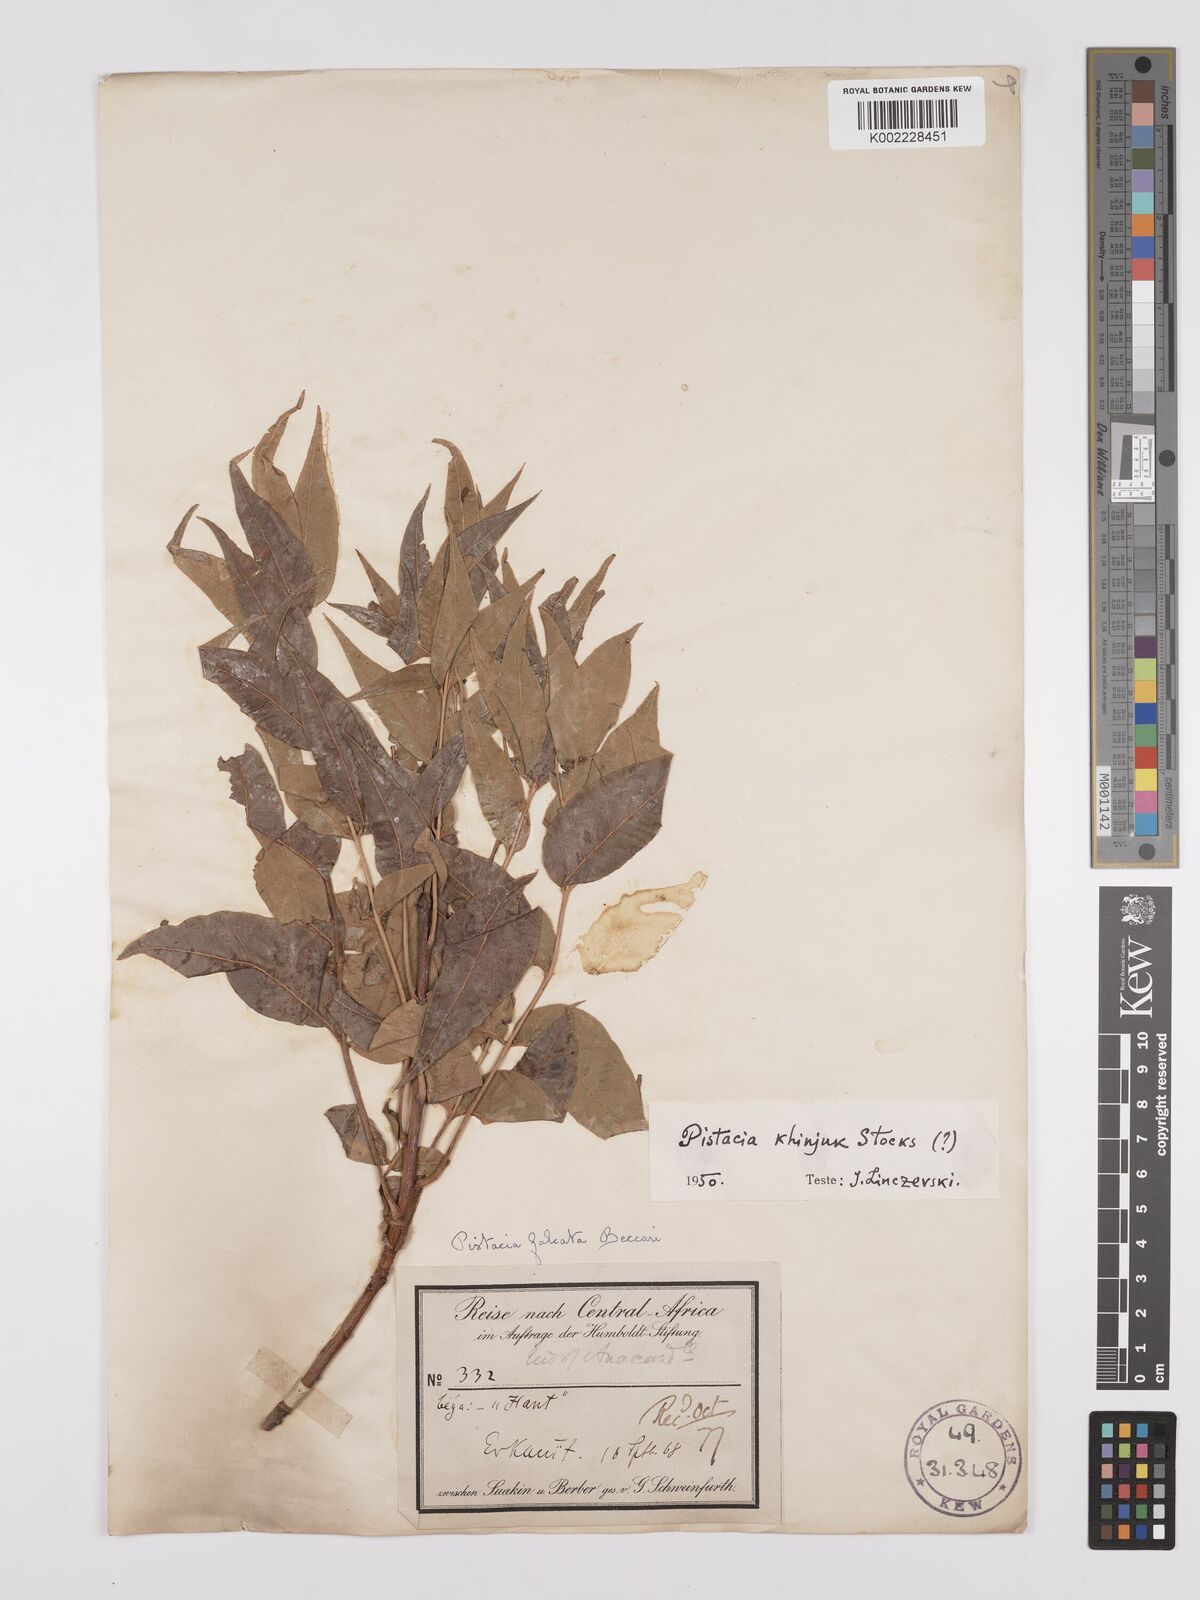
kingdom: Plantae
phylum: Tracheophyta
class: Magnoliopsida
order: Sapindales
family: Anacardiaceae
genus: Pistacia
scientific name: Pistacia khinjuk
